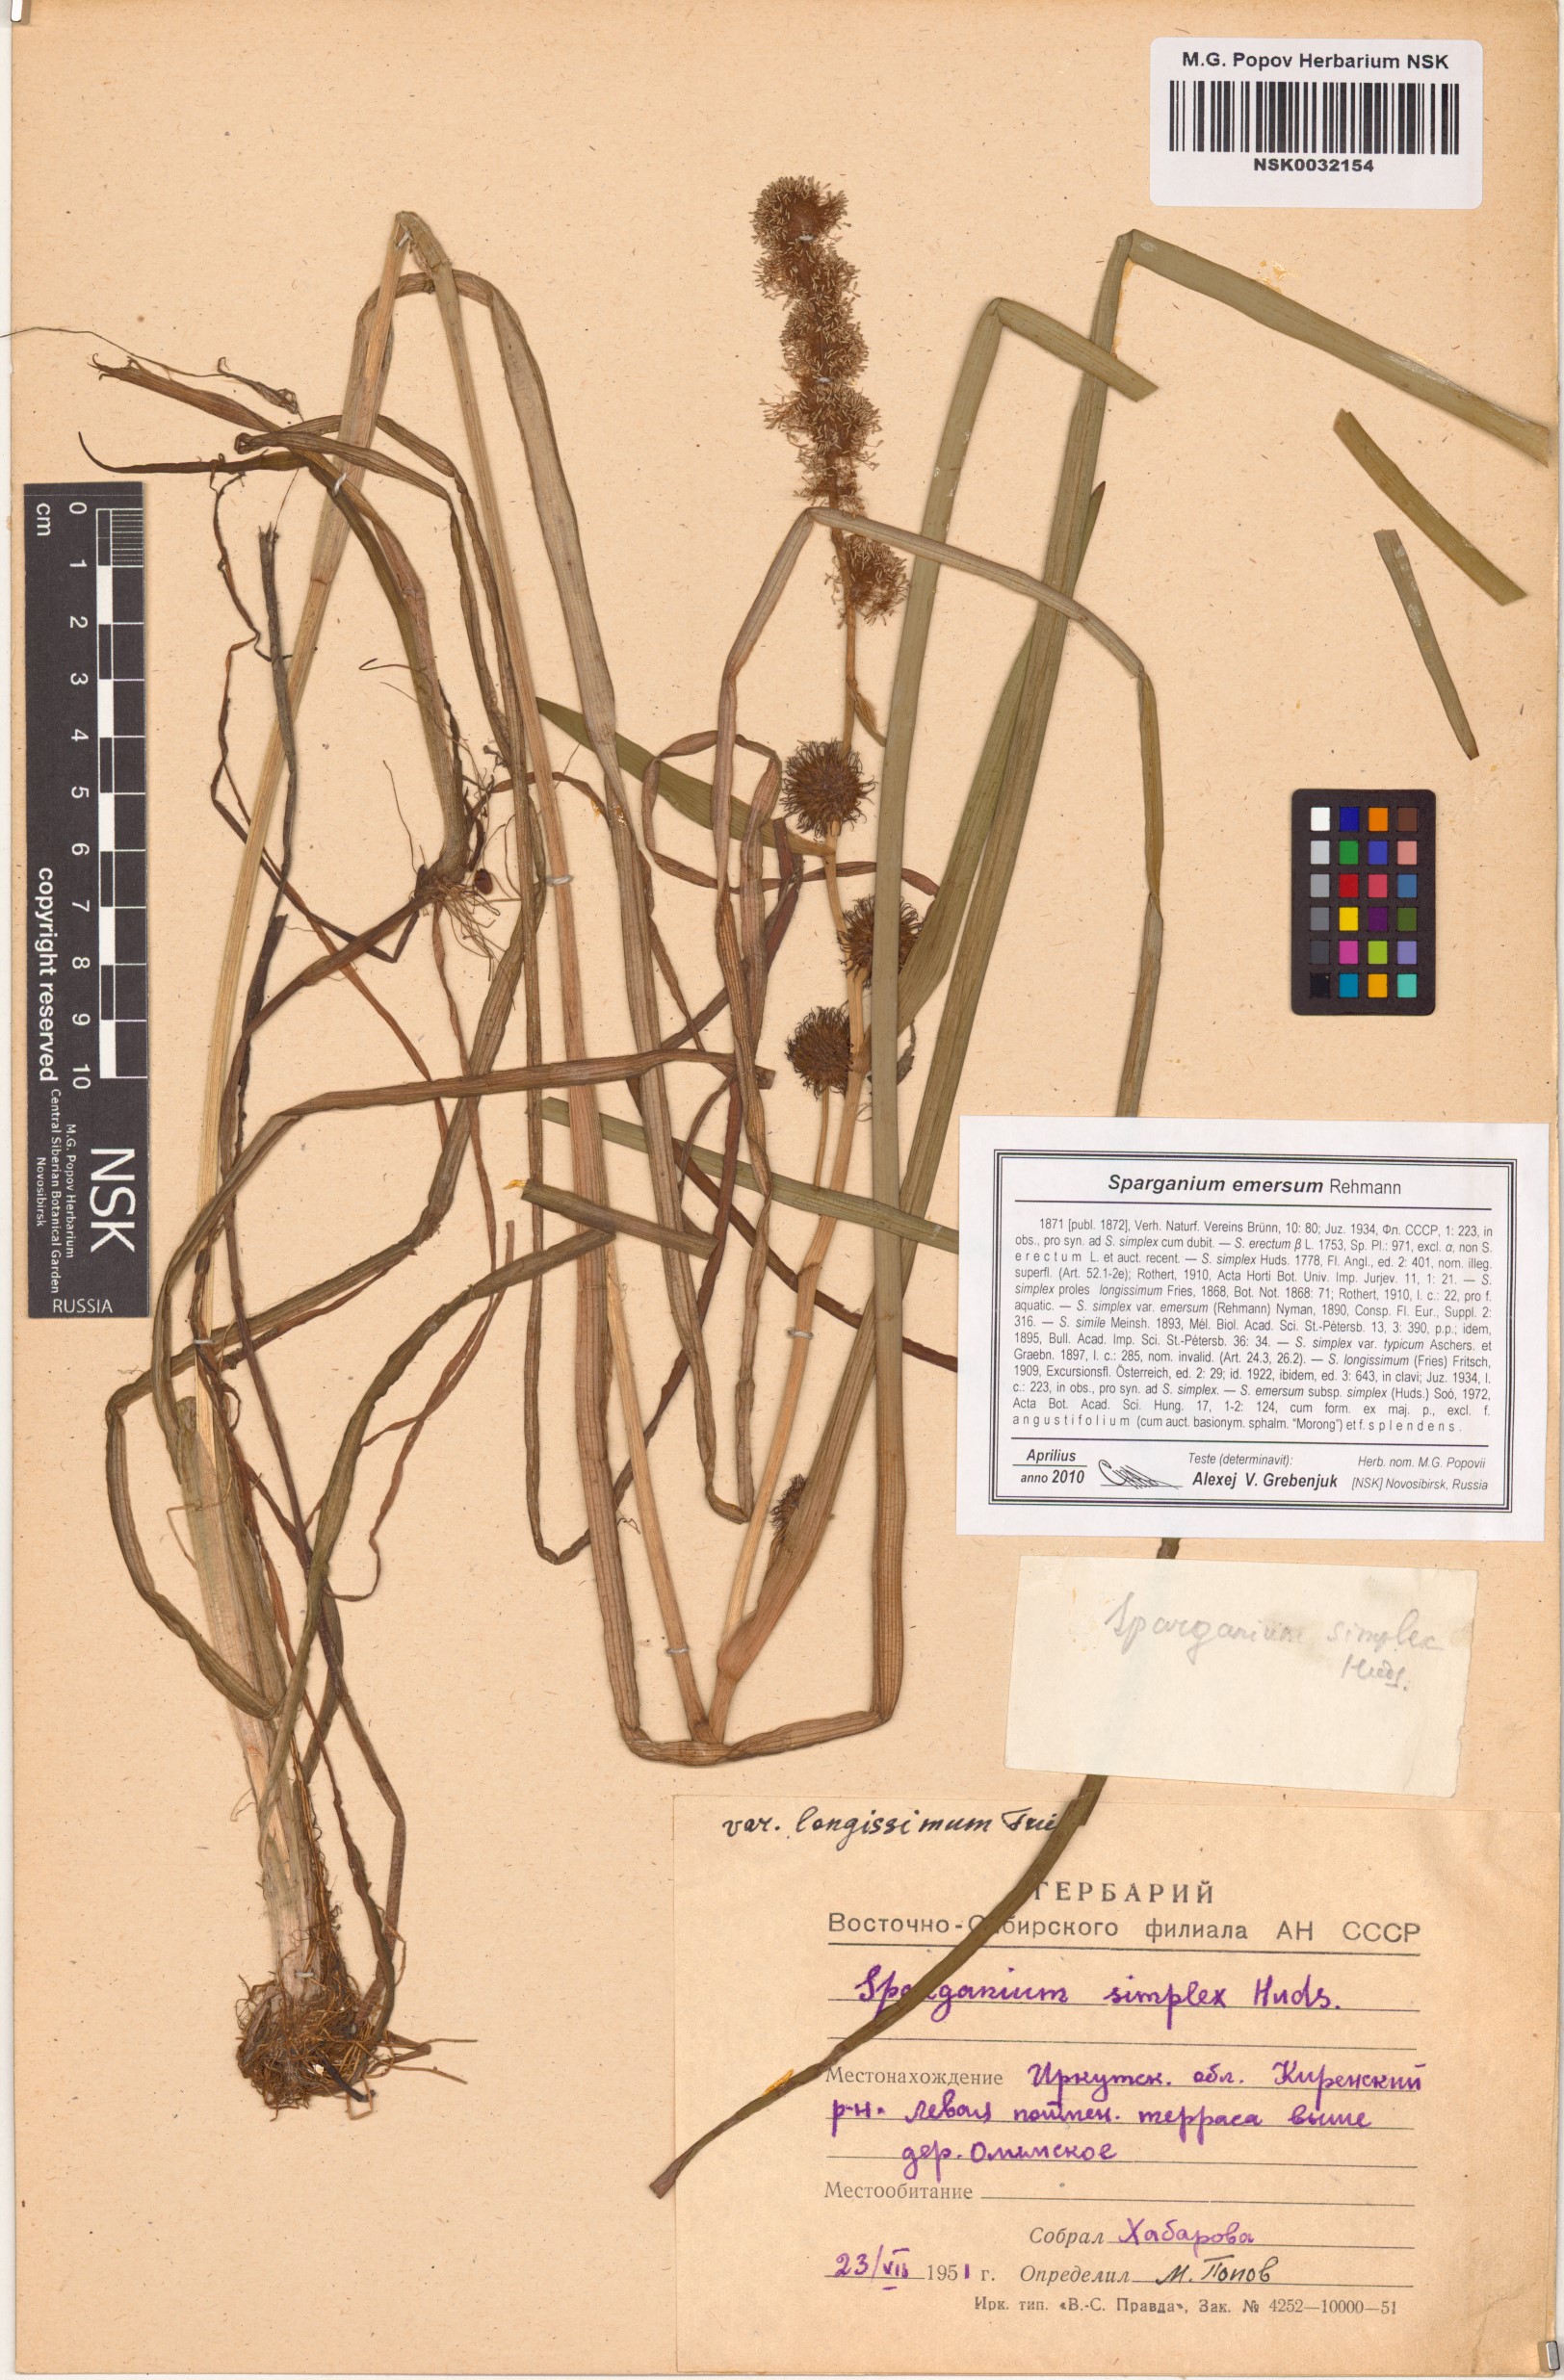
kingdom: Plantae
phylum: Tracheophyta
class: Liliopsida
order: Poales
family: Typhaceae
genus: Sparganium
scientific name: Sparganium emersum
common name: Unbranched bur-reed
